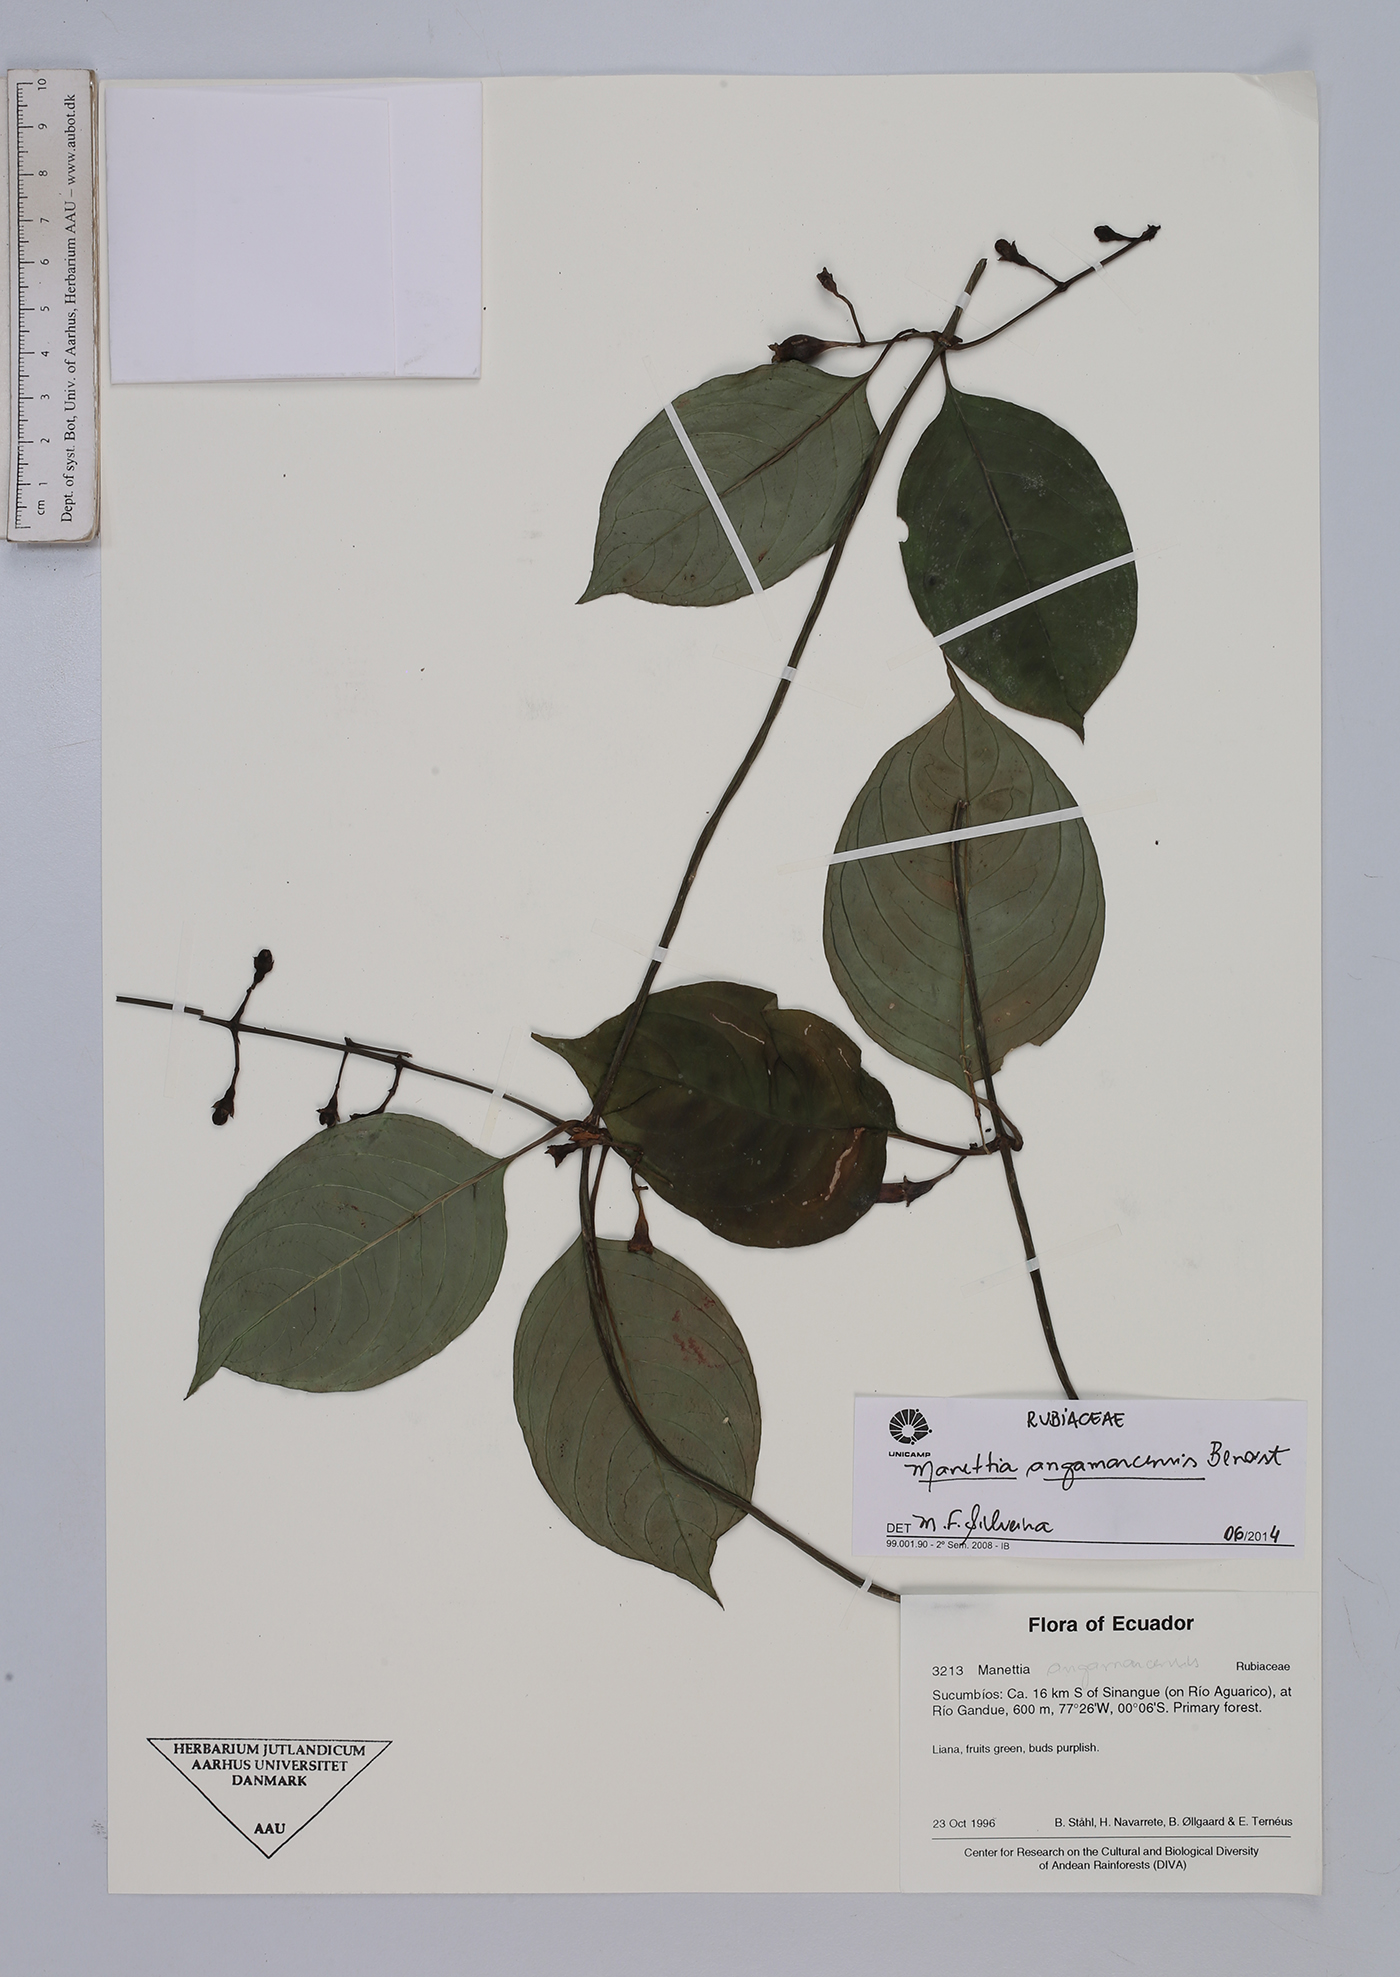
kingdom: Plantae
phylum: Tracheophyta
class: Magnoliopsida
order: Gentianales
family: Rubiaceae
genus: Manettia
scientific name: Manettia angamarcensis
